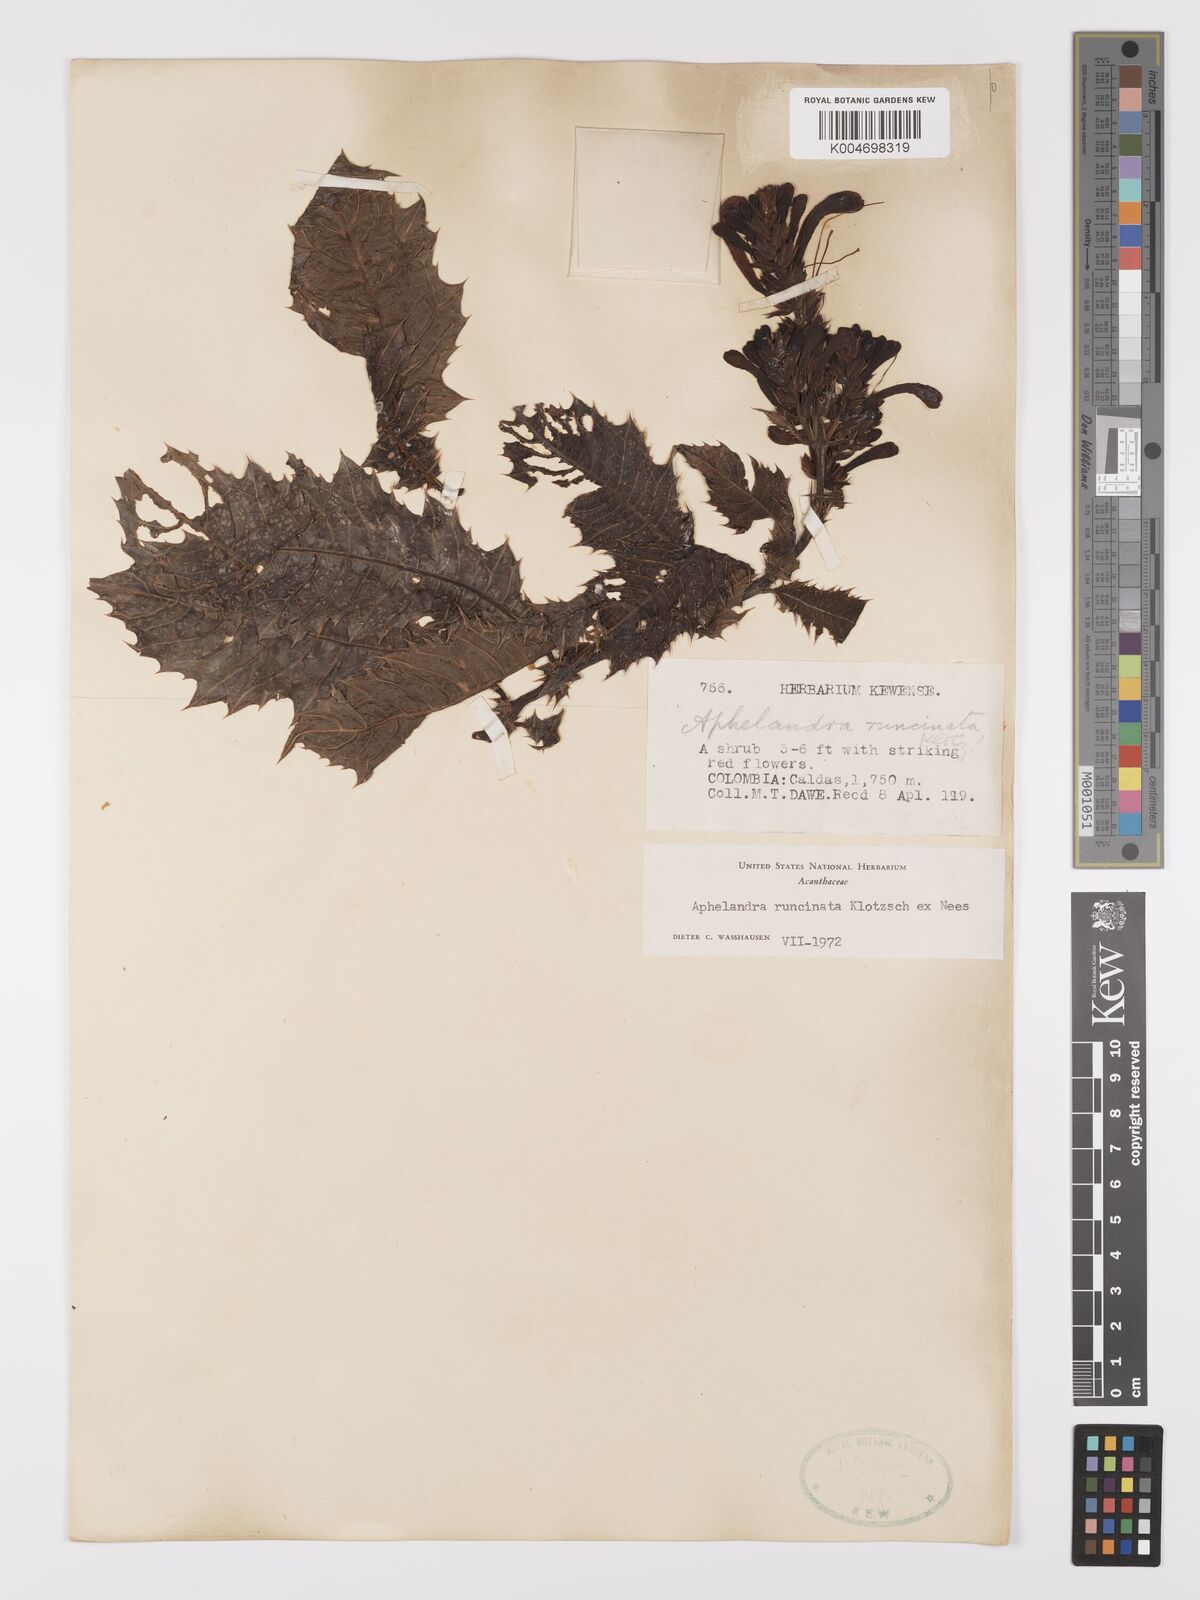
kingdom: Plantae
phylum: Tracheophyta
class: Magnoliopsida
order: Lamiales
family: Acanthaceae
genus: Aphelandra
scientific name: Aphelandra runcinata
